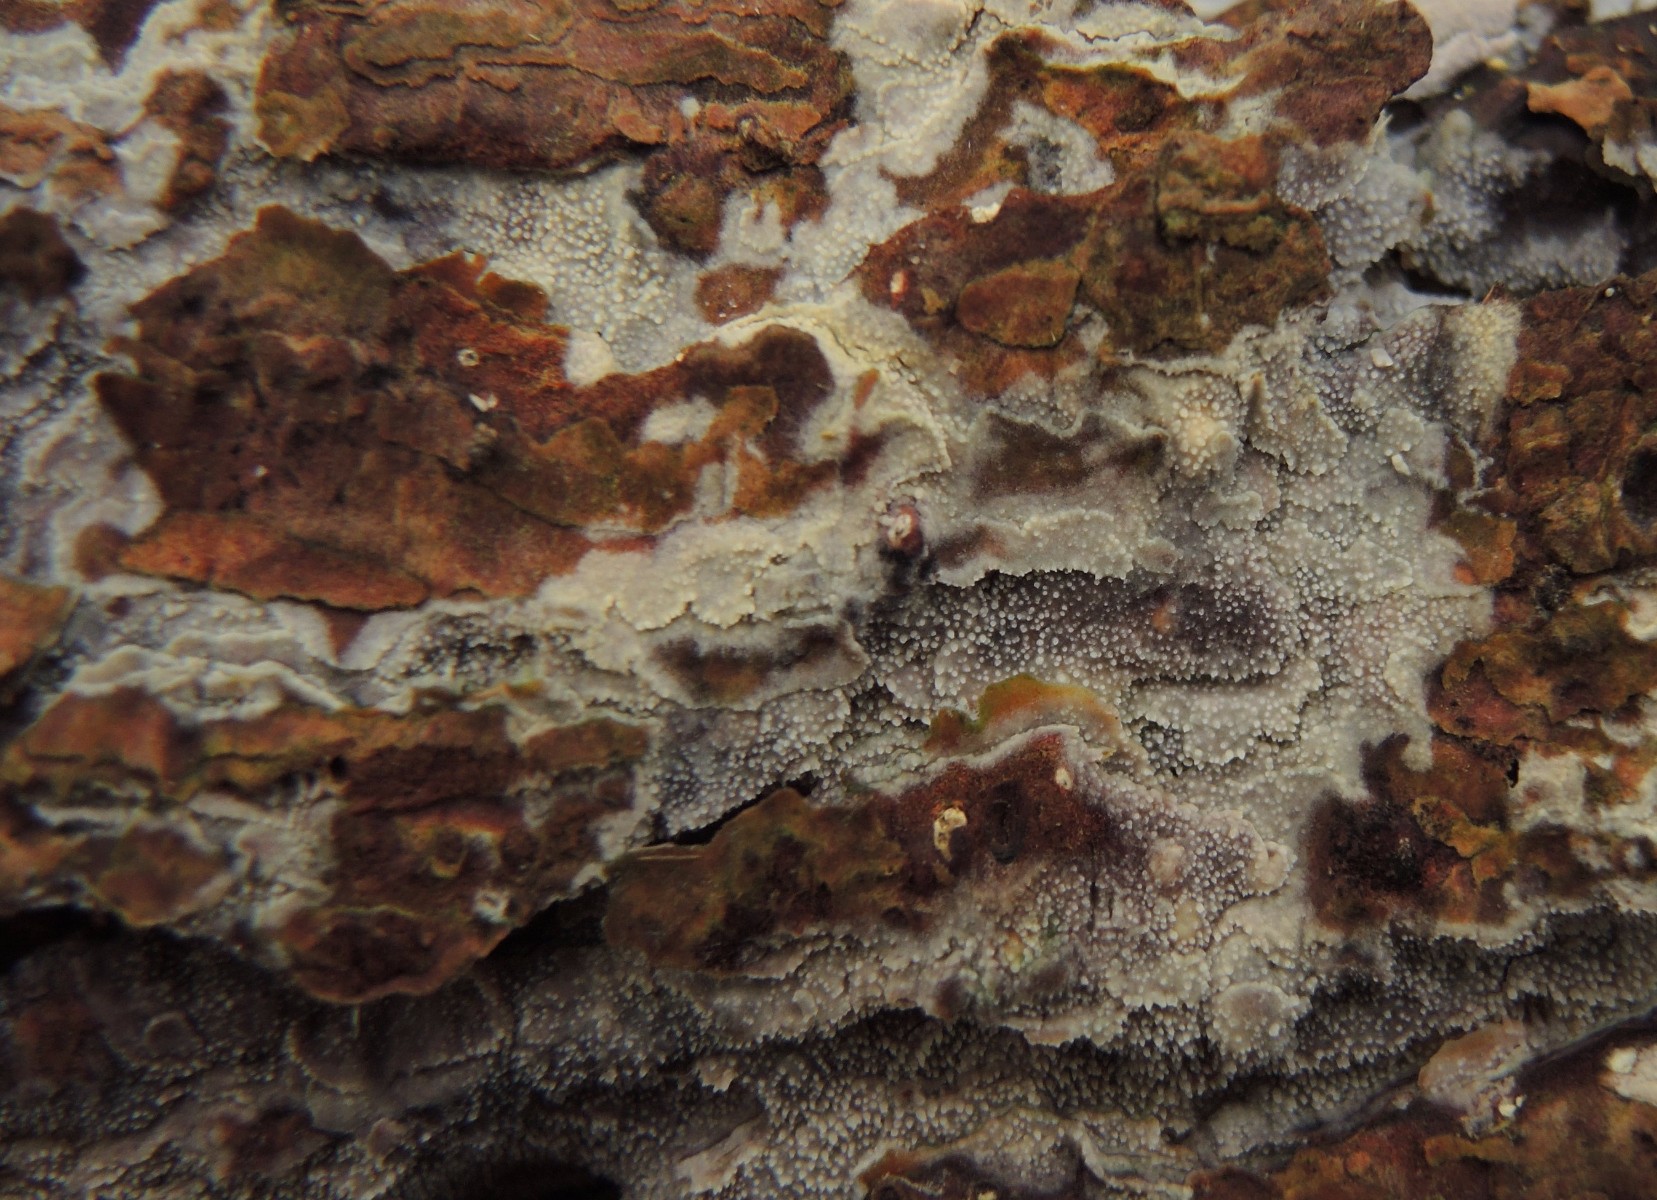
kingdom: Fungi
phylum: Basidiomycota
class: Agaricomycetes
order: Hymenochaetales
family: Rickenellaceae
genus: Resinicium
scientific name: Resinicium bicolor
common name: almindelig vokstand
